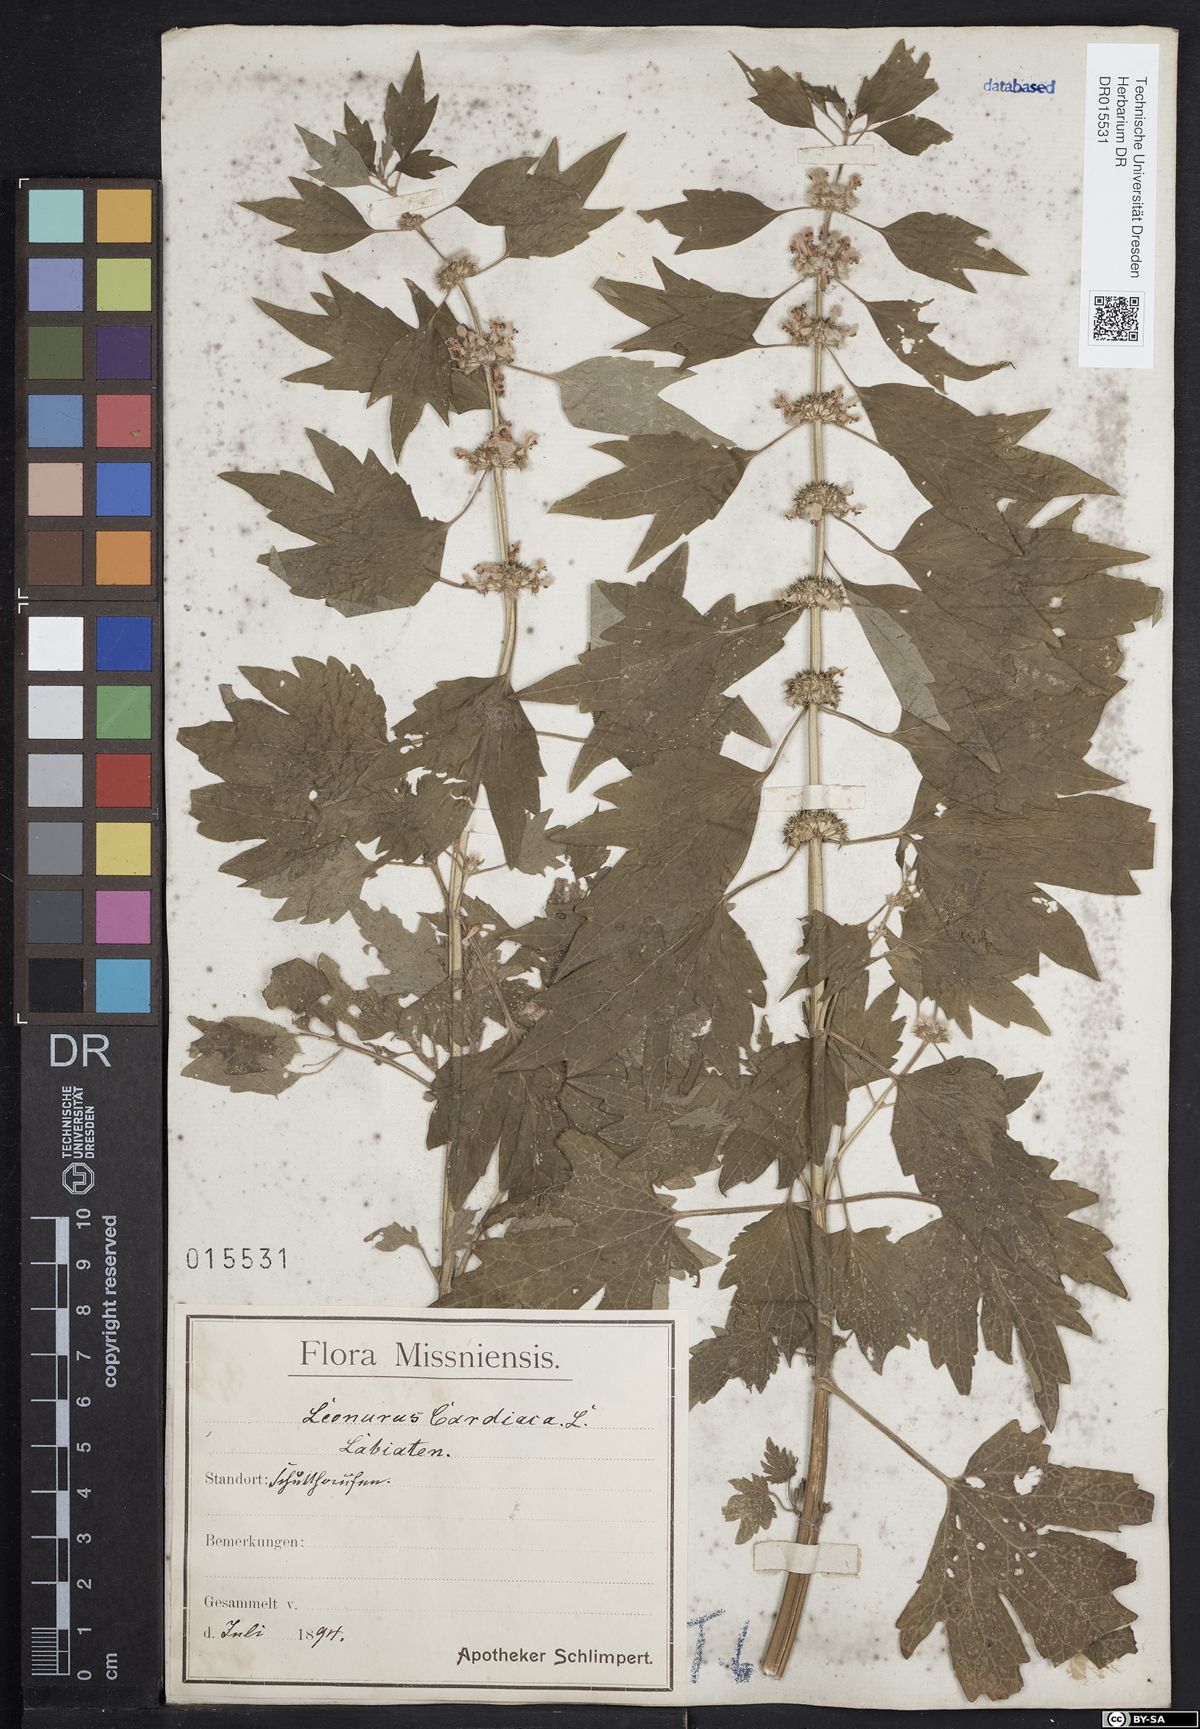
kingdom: Plantae
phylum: Tracheophyta
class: Magnoliopsida
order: Lamiales
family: Lamiaceae
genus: Leonurus
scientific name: Leonurus cardiaca
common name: Motherwort
